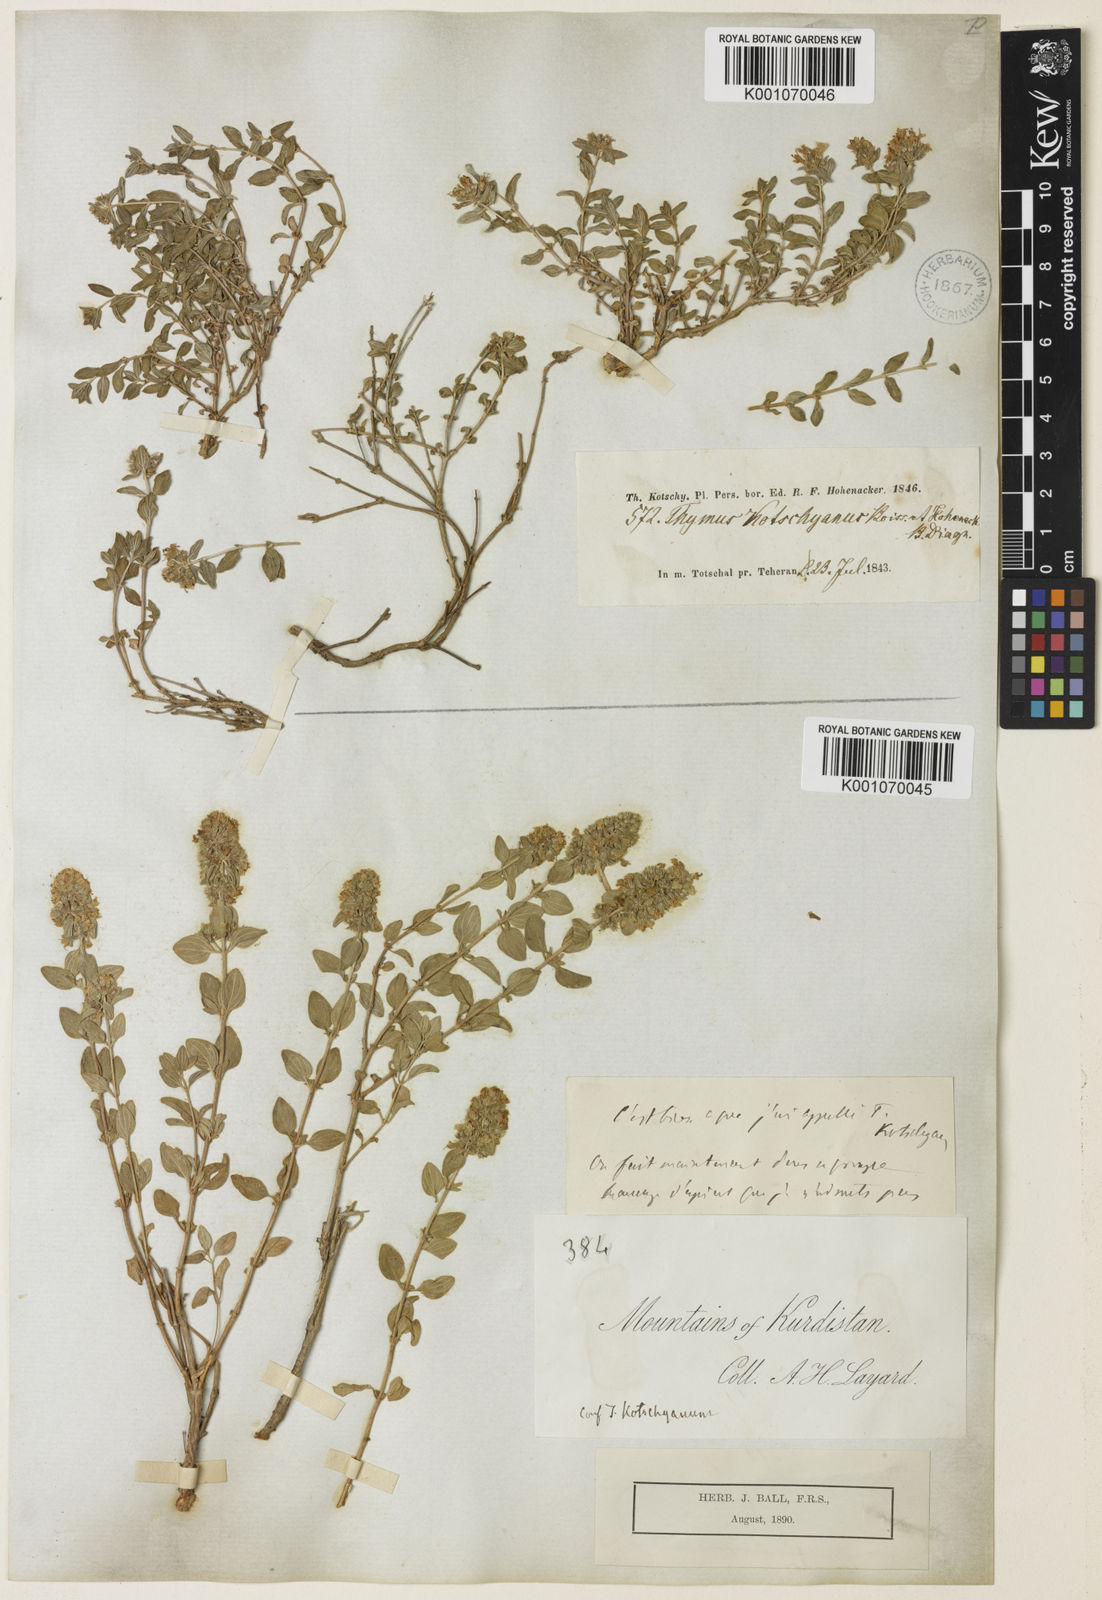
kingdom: Plantae
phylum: Tracheophyta
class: Magnoliopsida
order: Lamiales
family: Lamiaceae
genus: Thymus
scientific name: Thymus serpyllum
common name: Breckland thyme
